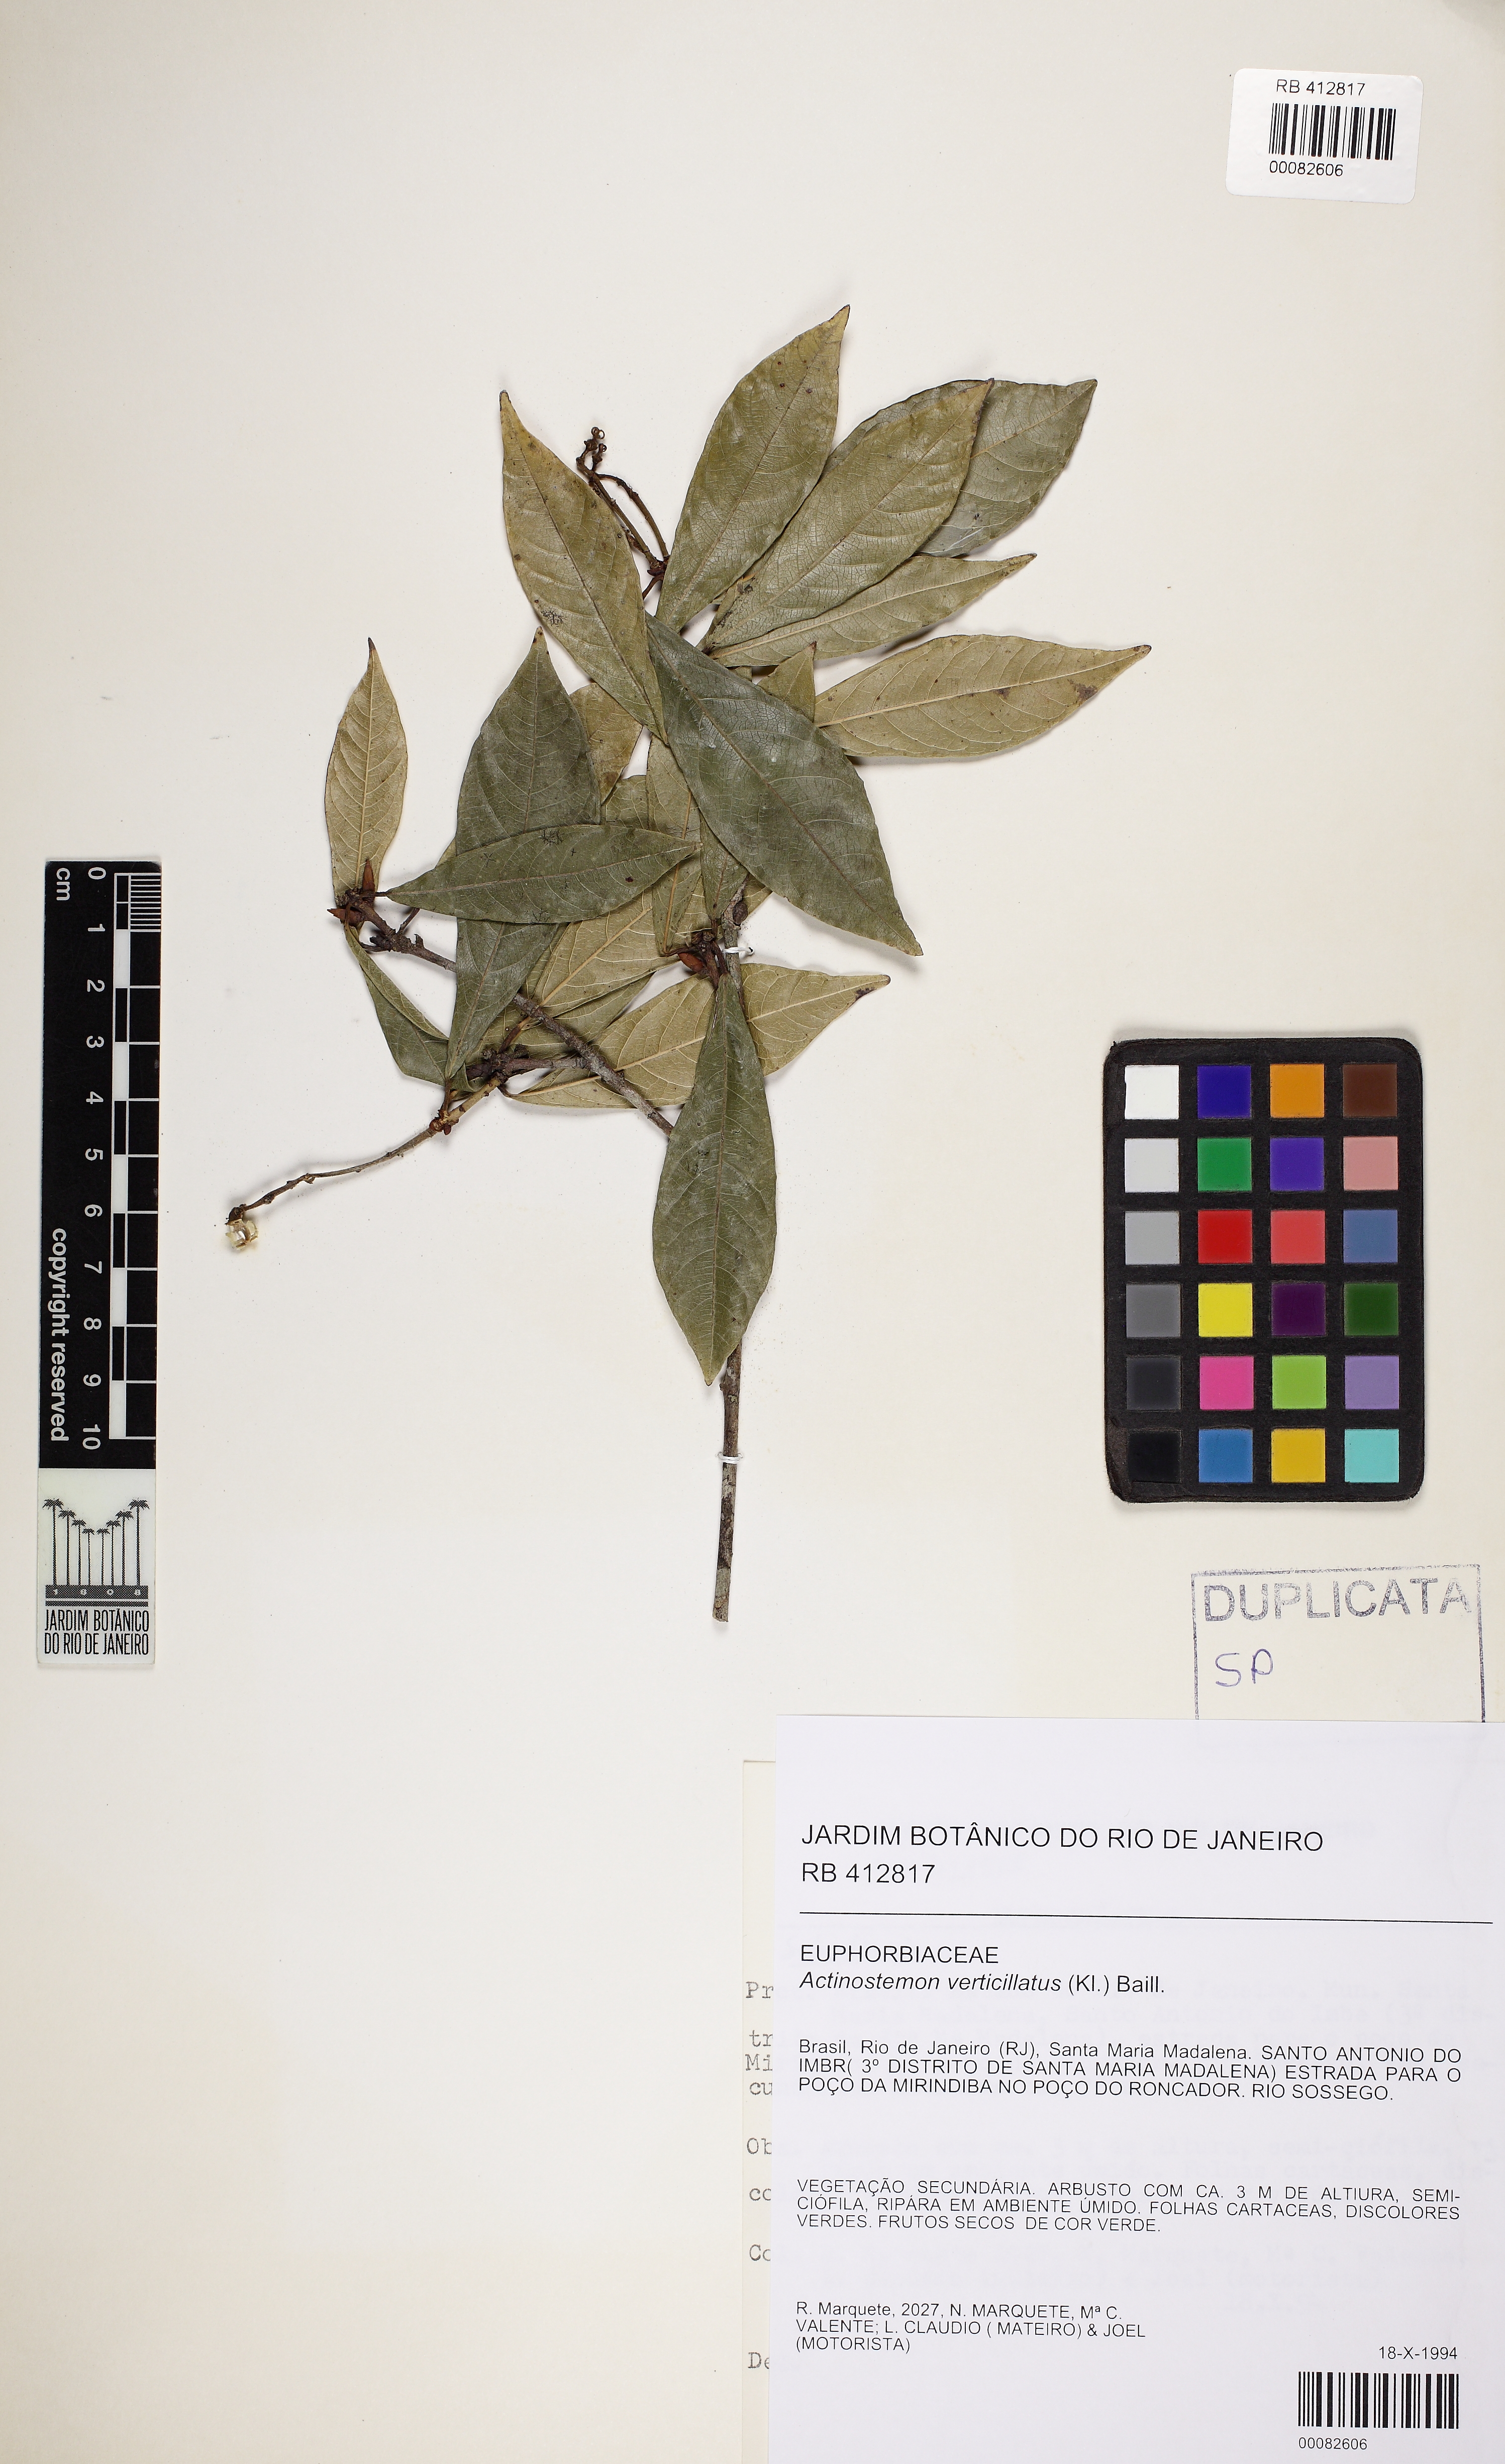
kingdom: Plantae
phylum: Tracheophyta
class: Magnoliopsida
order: Malpighiales
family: Euphorbiaceae
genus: Actinostemon
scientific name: Actinostemon verticillatus
